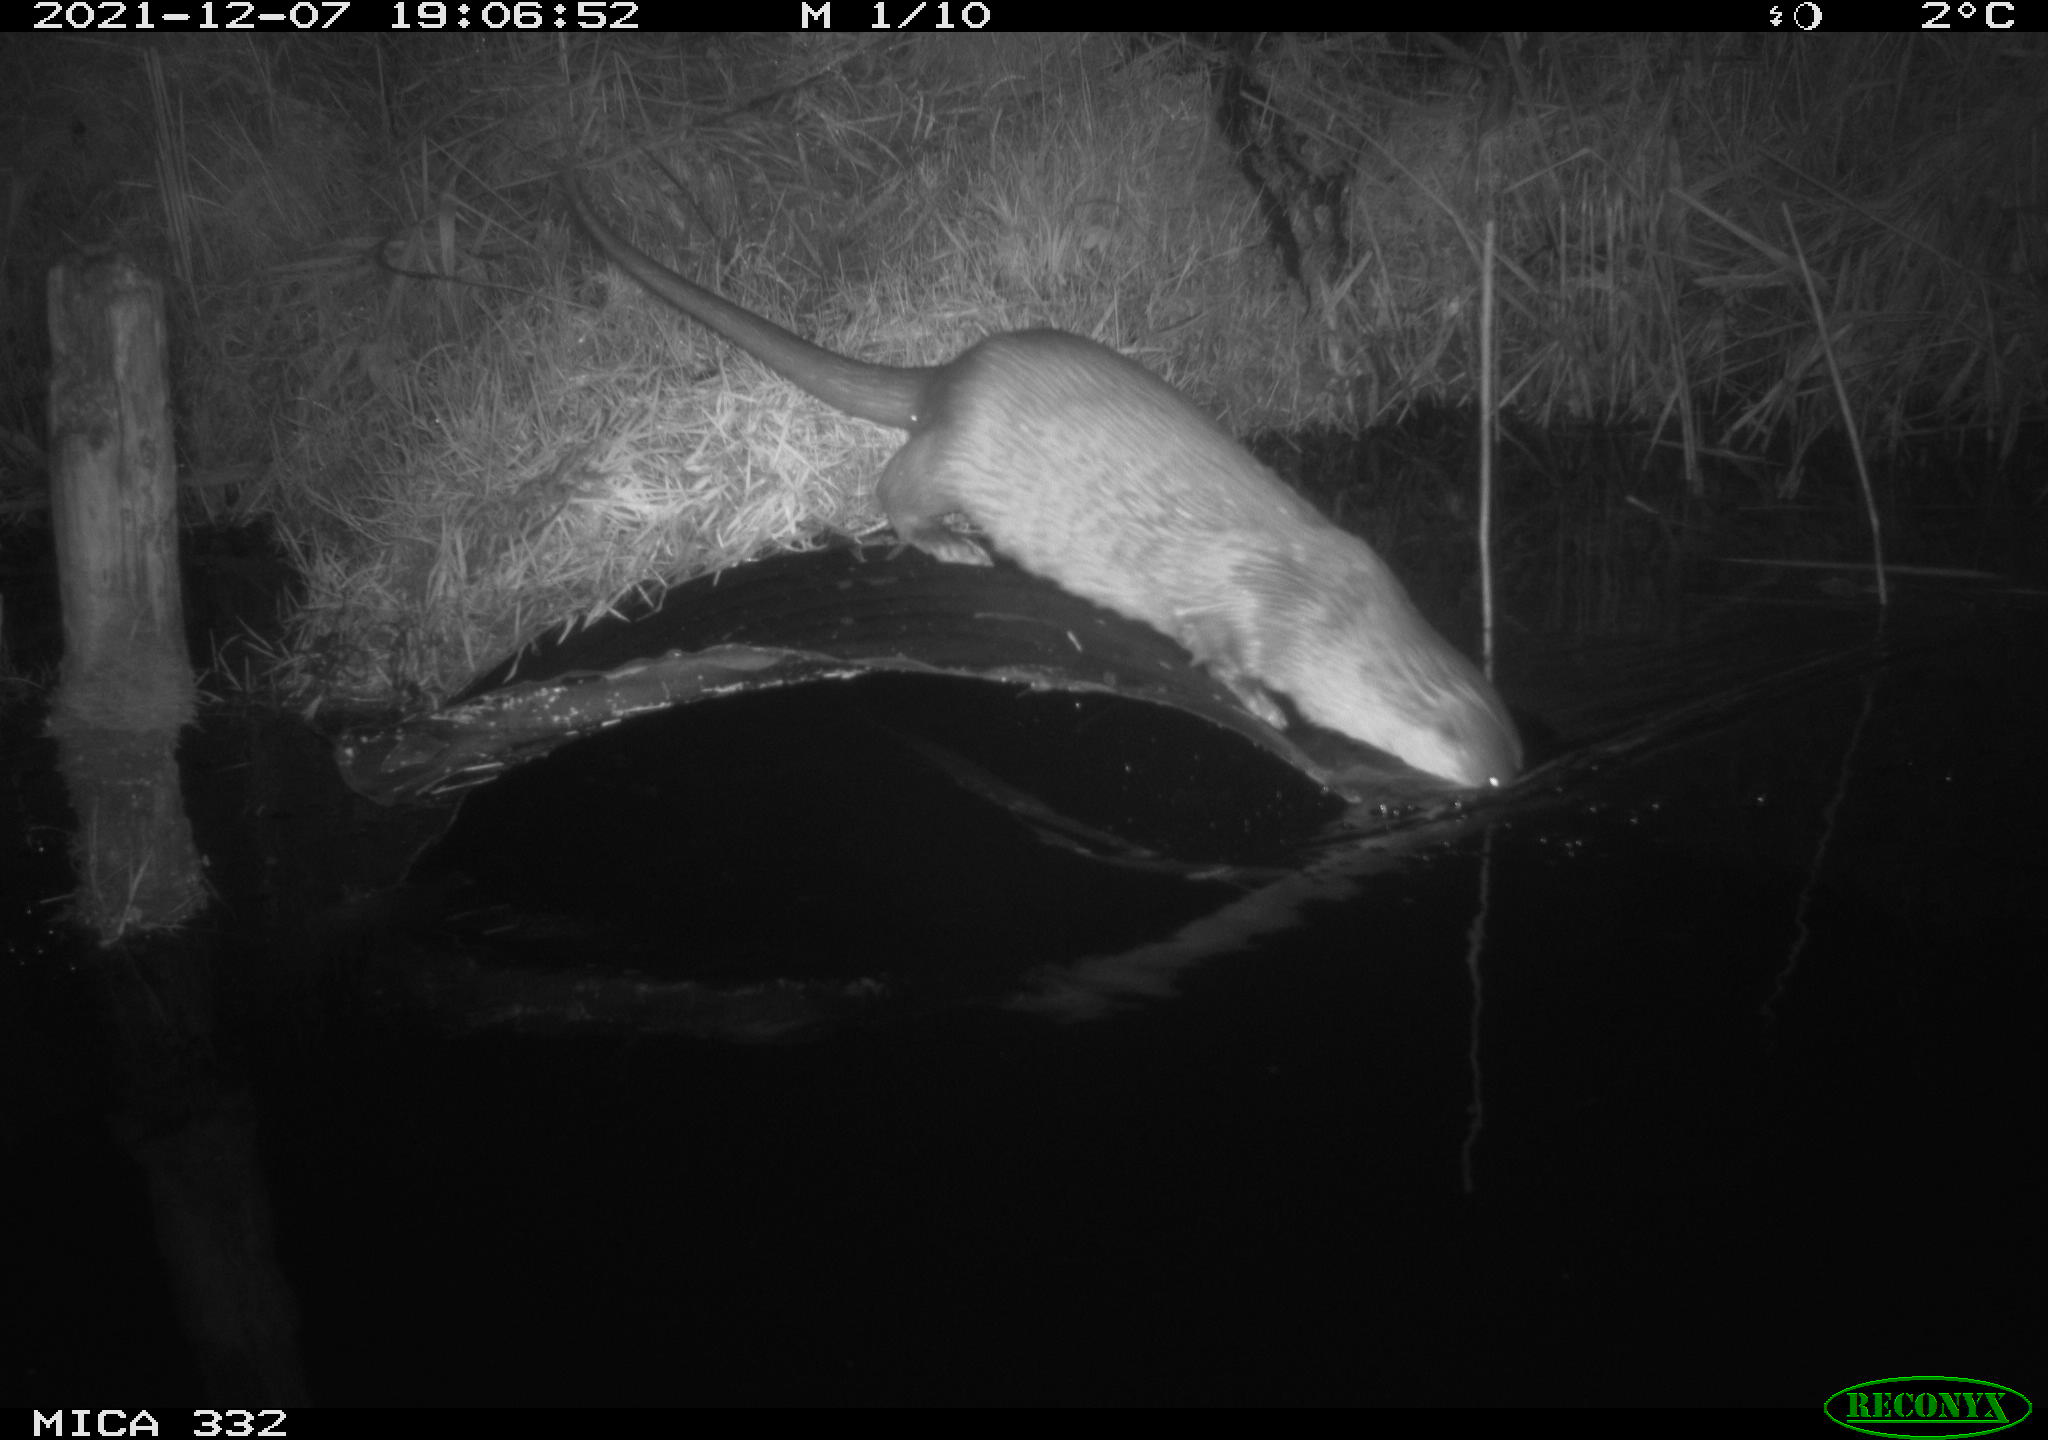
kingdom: Animalia
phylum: Chordata
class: Mammalia
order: Carnivora
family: Mustelidae
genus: Lutra
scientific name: Lutra lutra
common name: European otter
